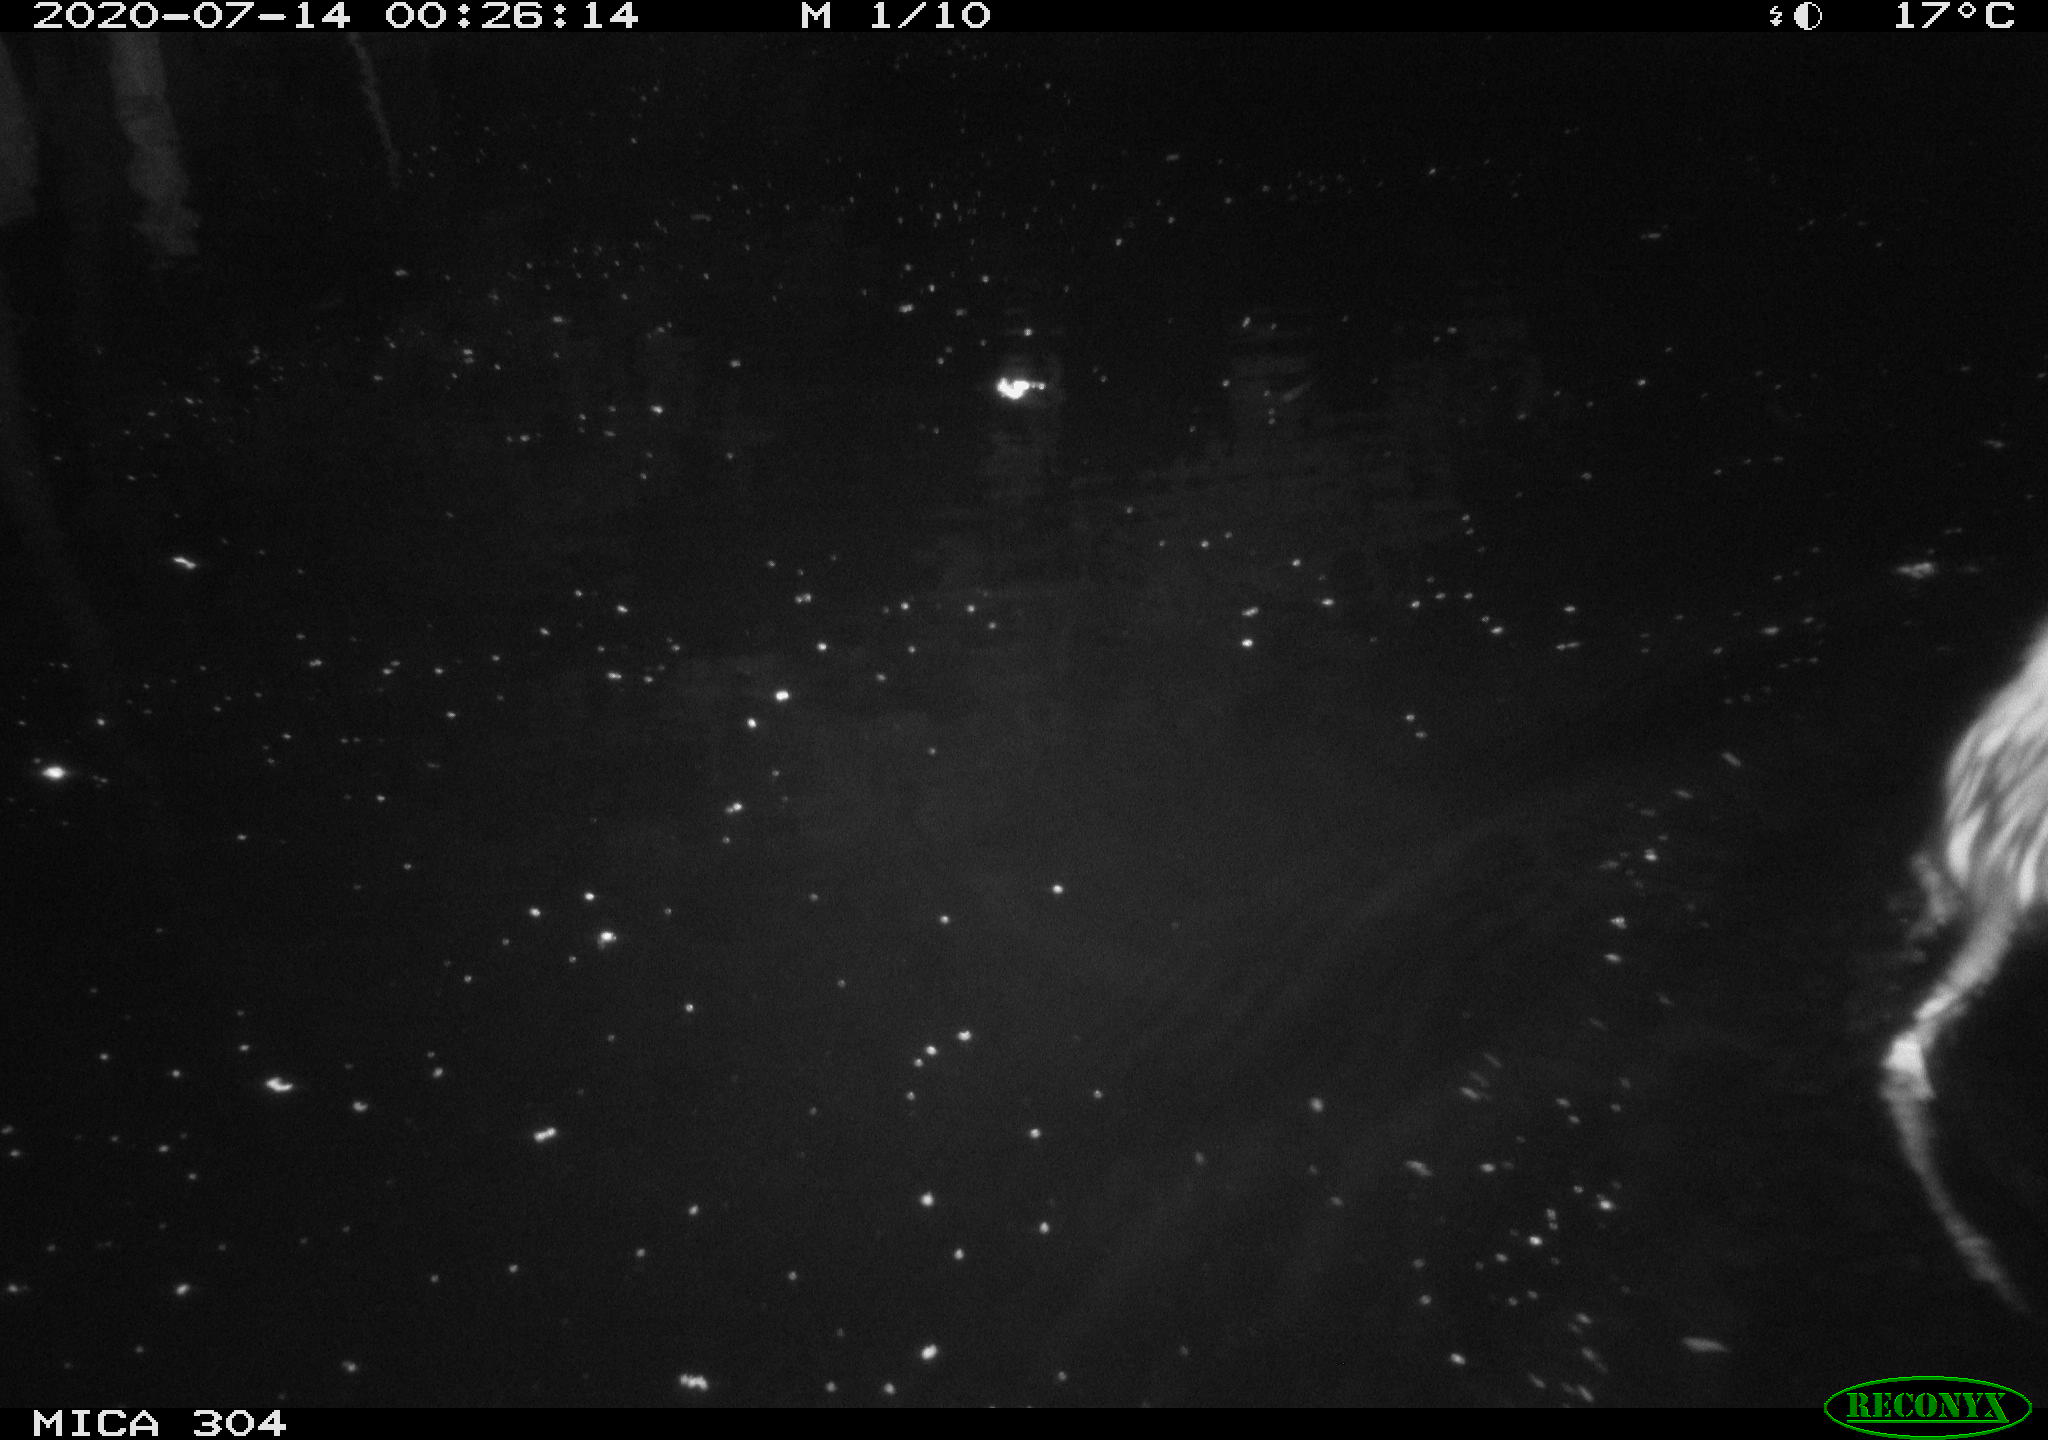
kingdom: Animalia
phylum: Chordata
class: Mammalia
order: Rodentia
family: Cricetidae
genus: Ondatra
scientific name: Ondatra zibethicus
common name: Muskrat
